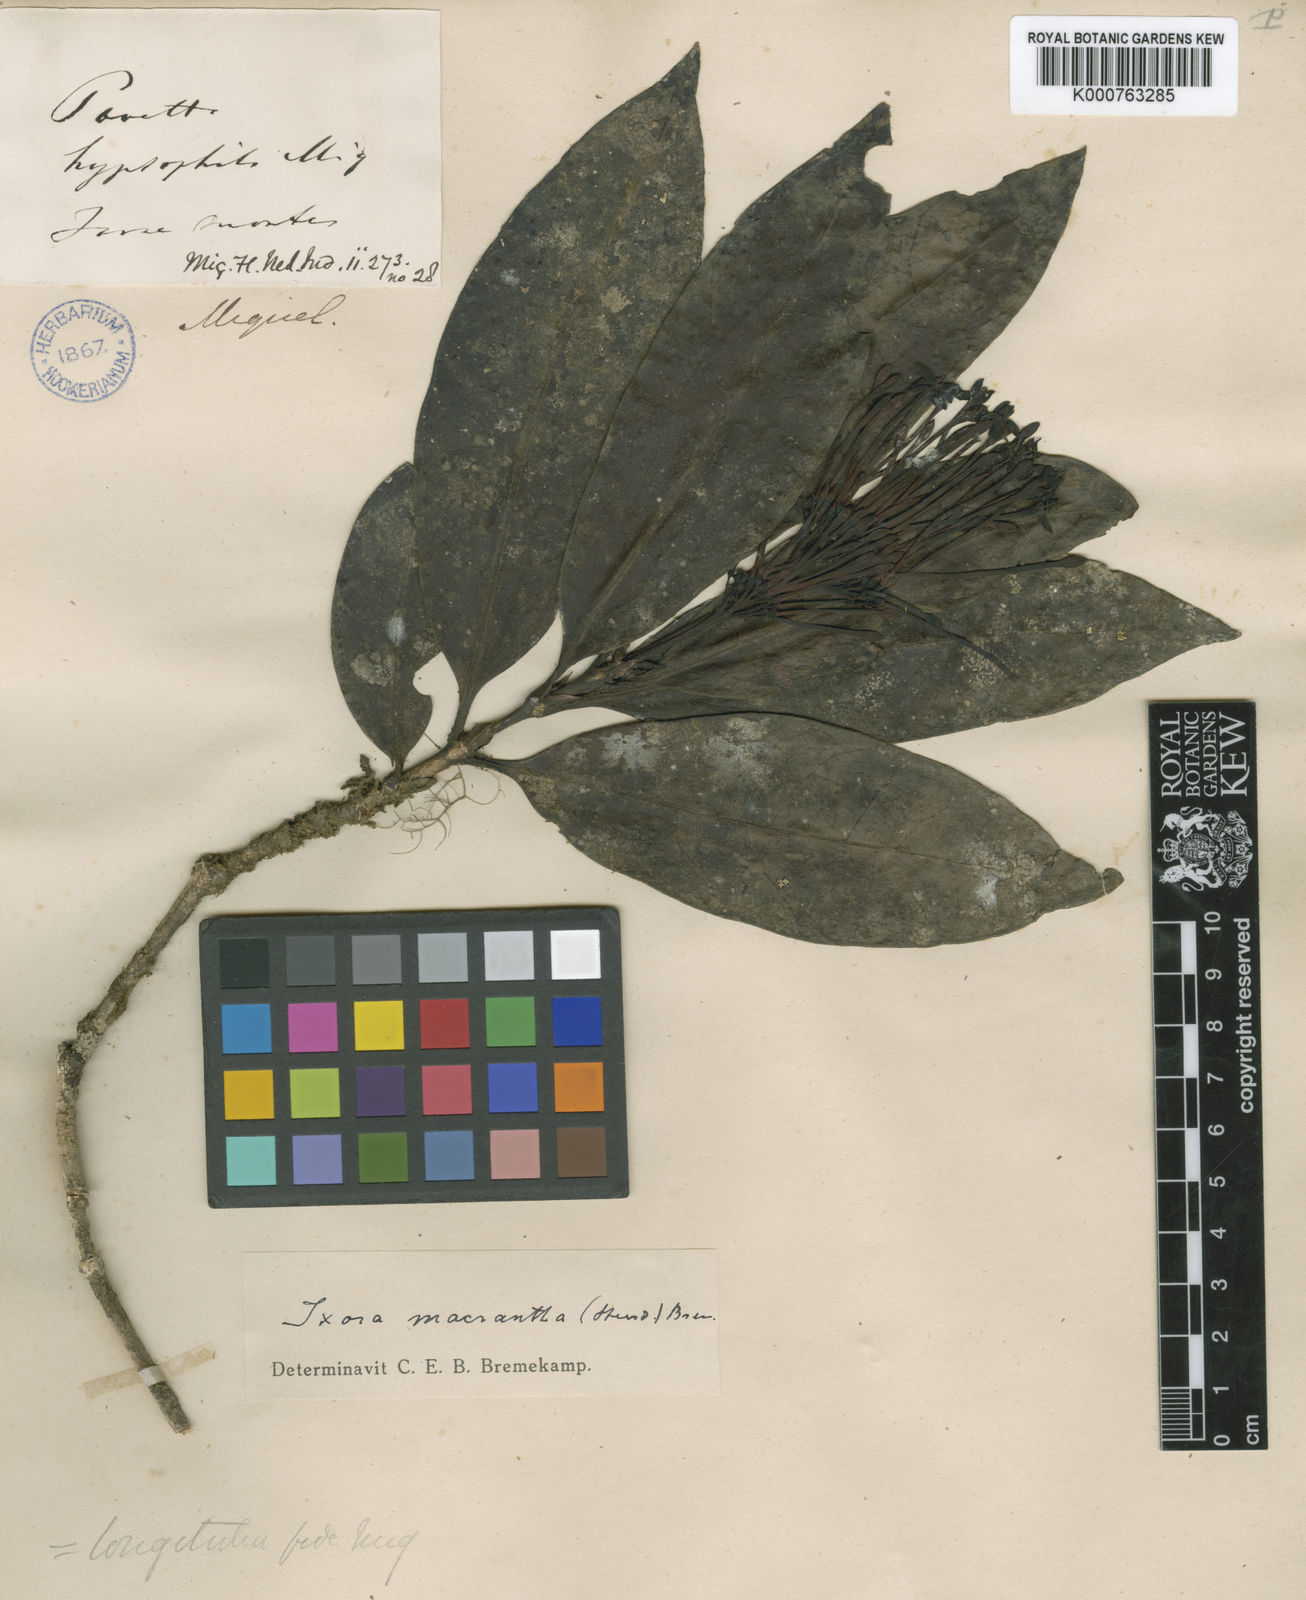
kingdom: Plantae
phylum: Tracheophyta
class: Magnoliopsida
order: Gentianales
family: Rubiaceae
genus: Ixora
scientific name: Ixora macrantha
